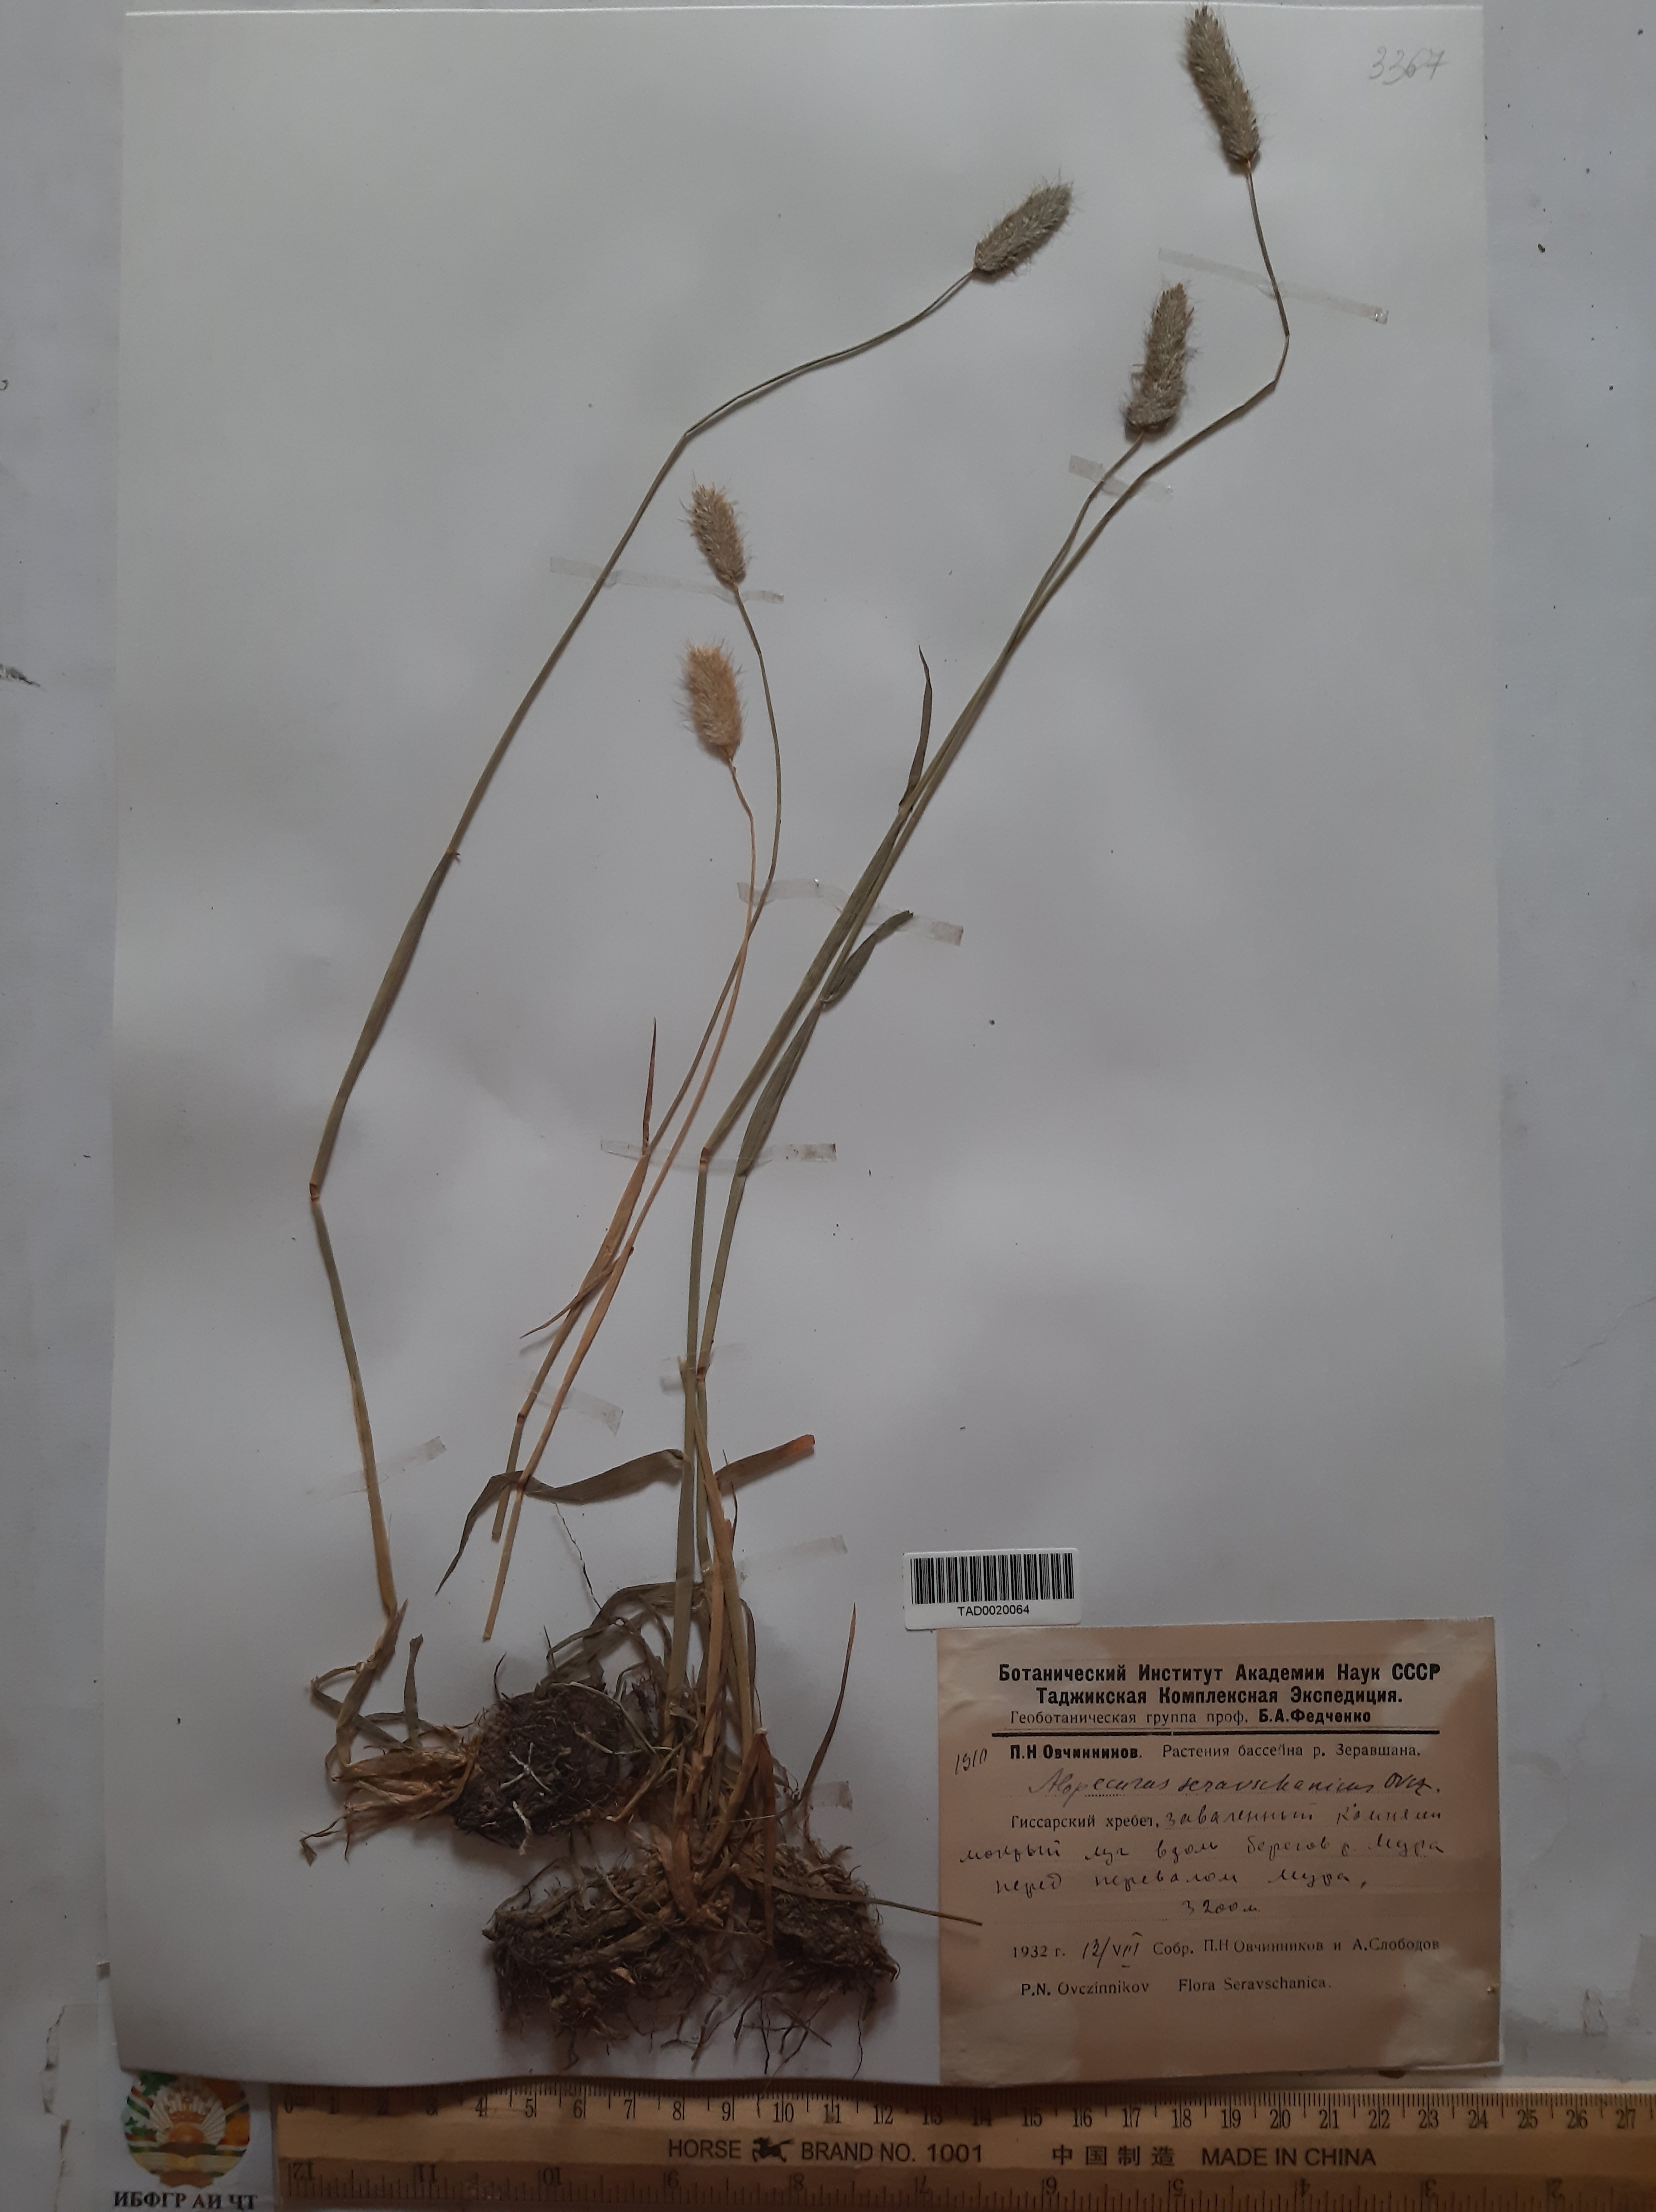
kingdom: Plantae
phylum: Tracheophyta
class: Liliopsida
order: Poales
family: Poaceae
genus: Alopecurus
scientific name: Alopecurus pratensis
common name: Meadow foxtail
